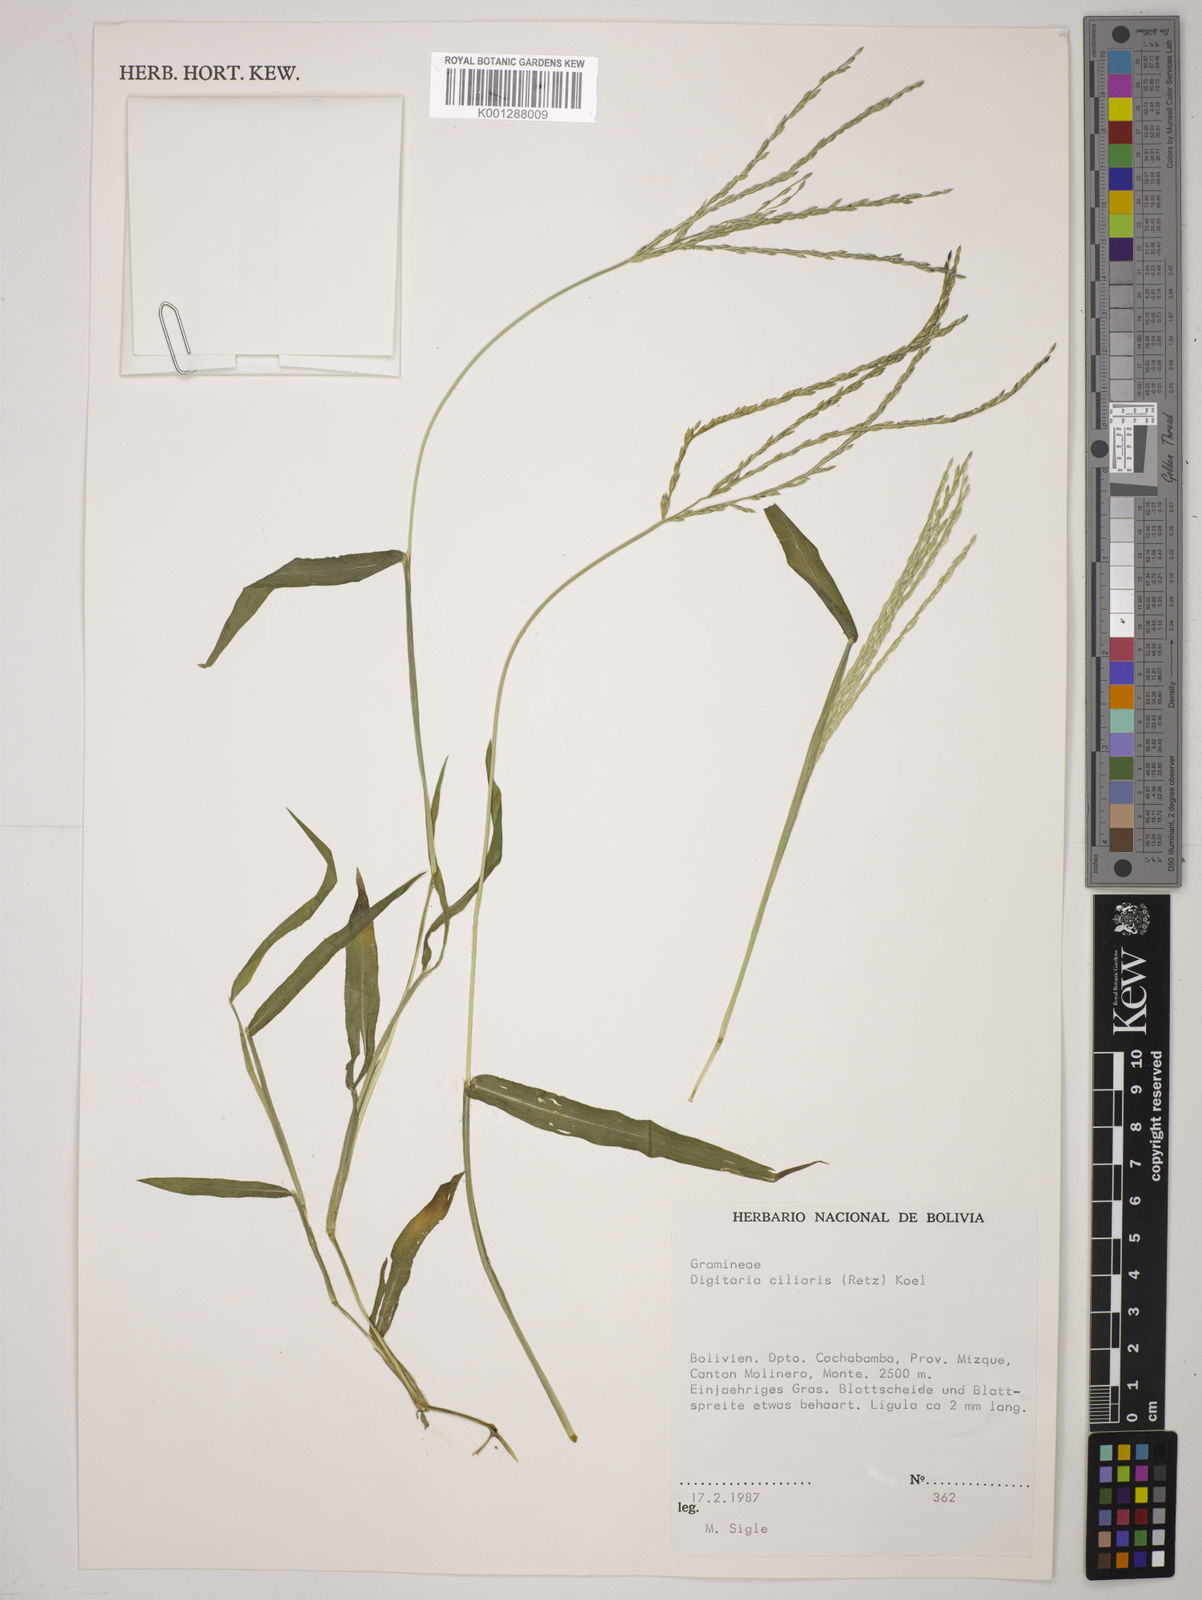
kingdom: Plantae
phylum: Tracheophyta
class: Liliopsida
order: Poales
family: Poaceae
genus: Digitaria
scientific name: Digitaria
